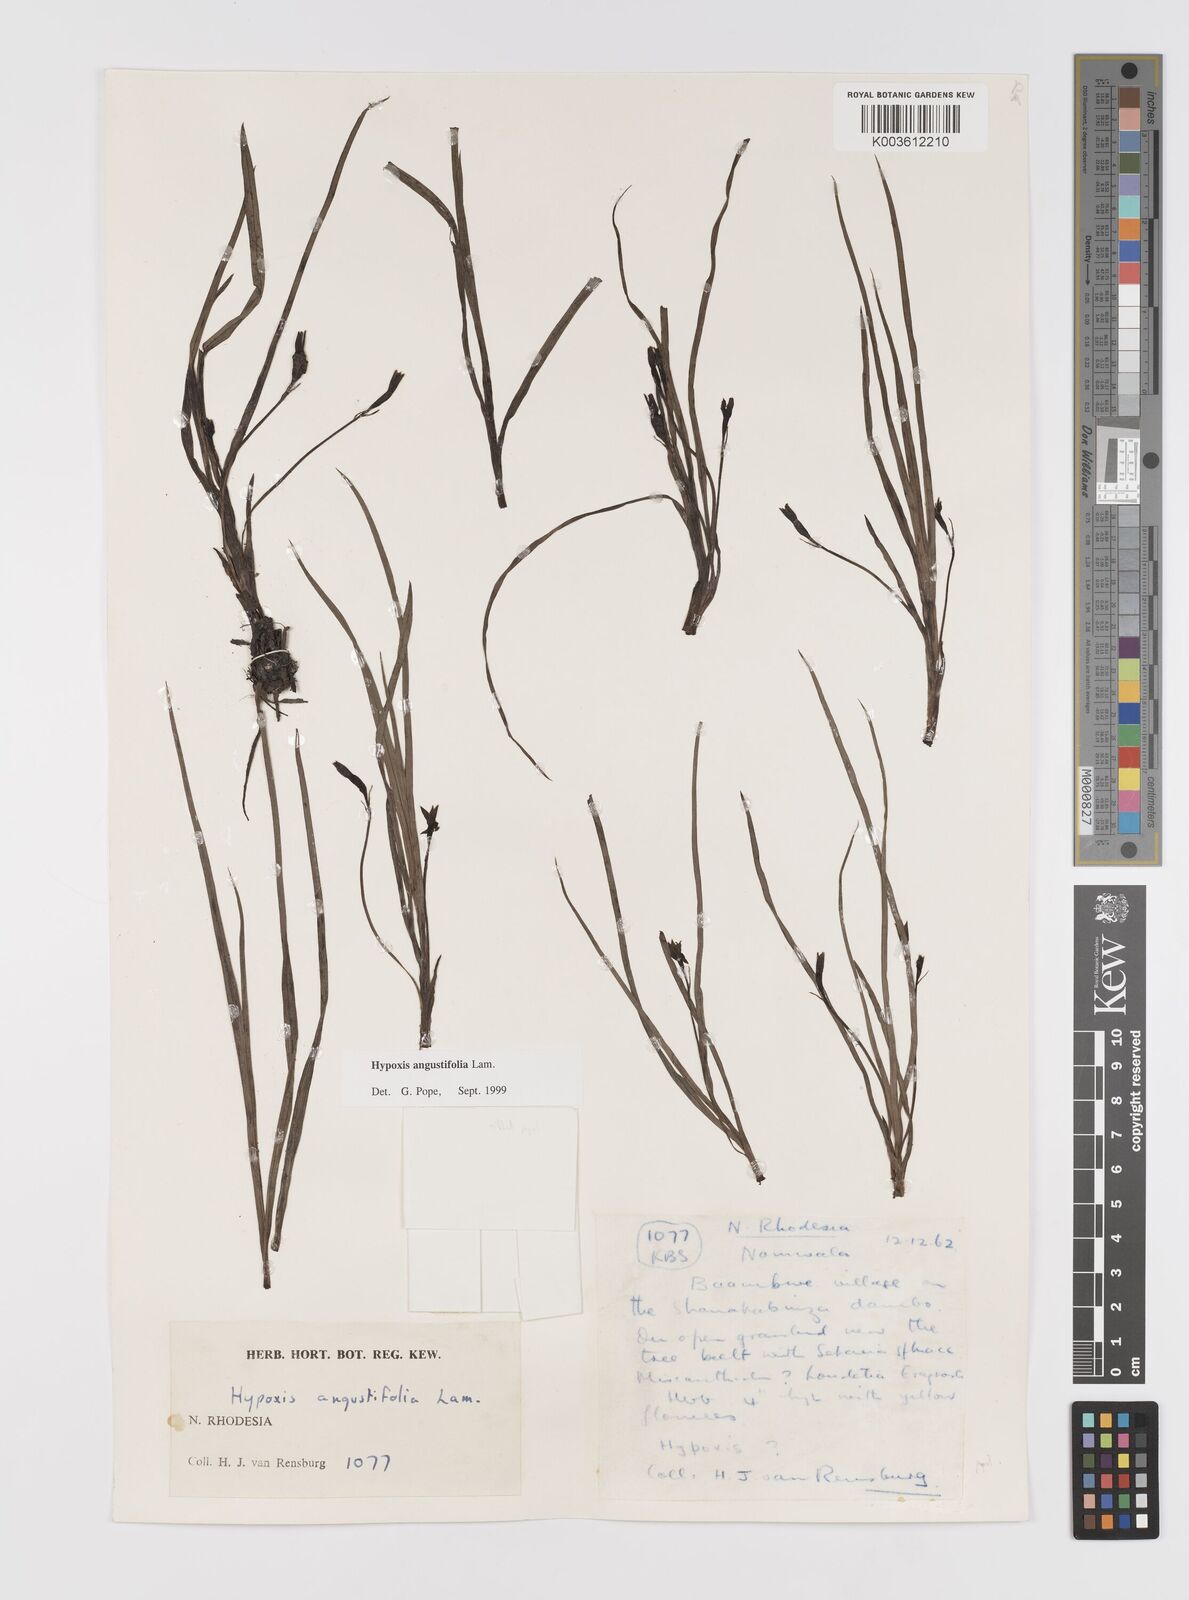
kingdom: Plantae
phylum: Tracheophyta
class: Liliopsida
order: Asparagales
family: Hypoxidaceae
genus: Hypoxis
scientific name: Hypoxis angustifolia
